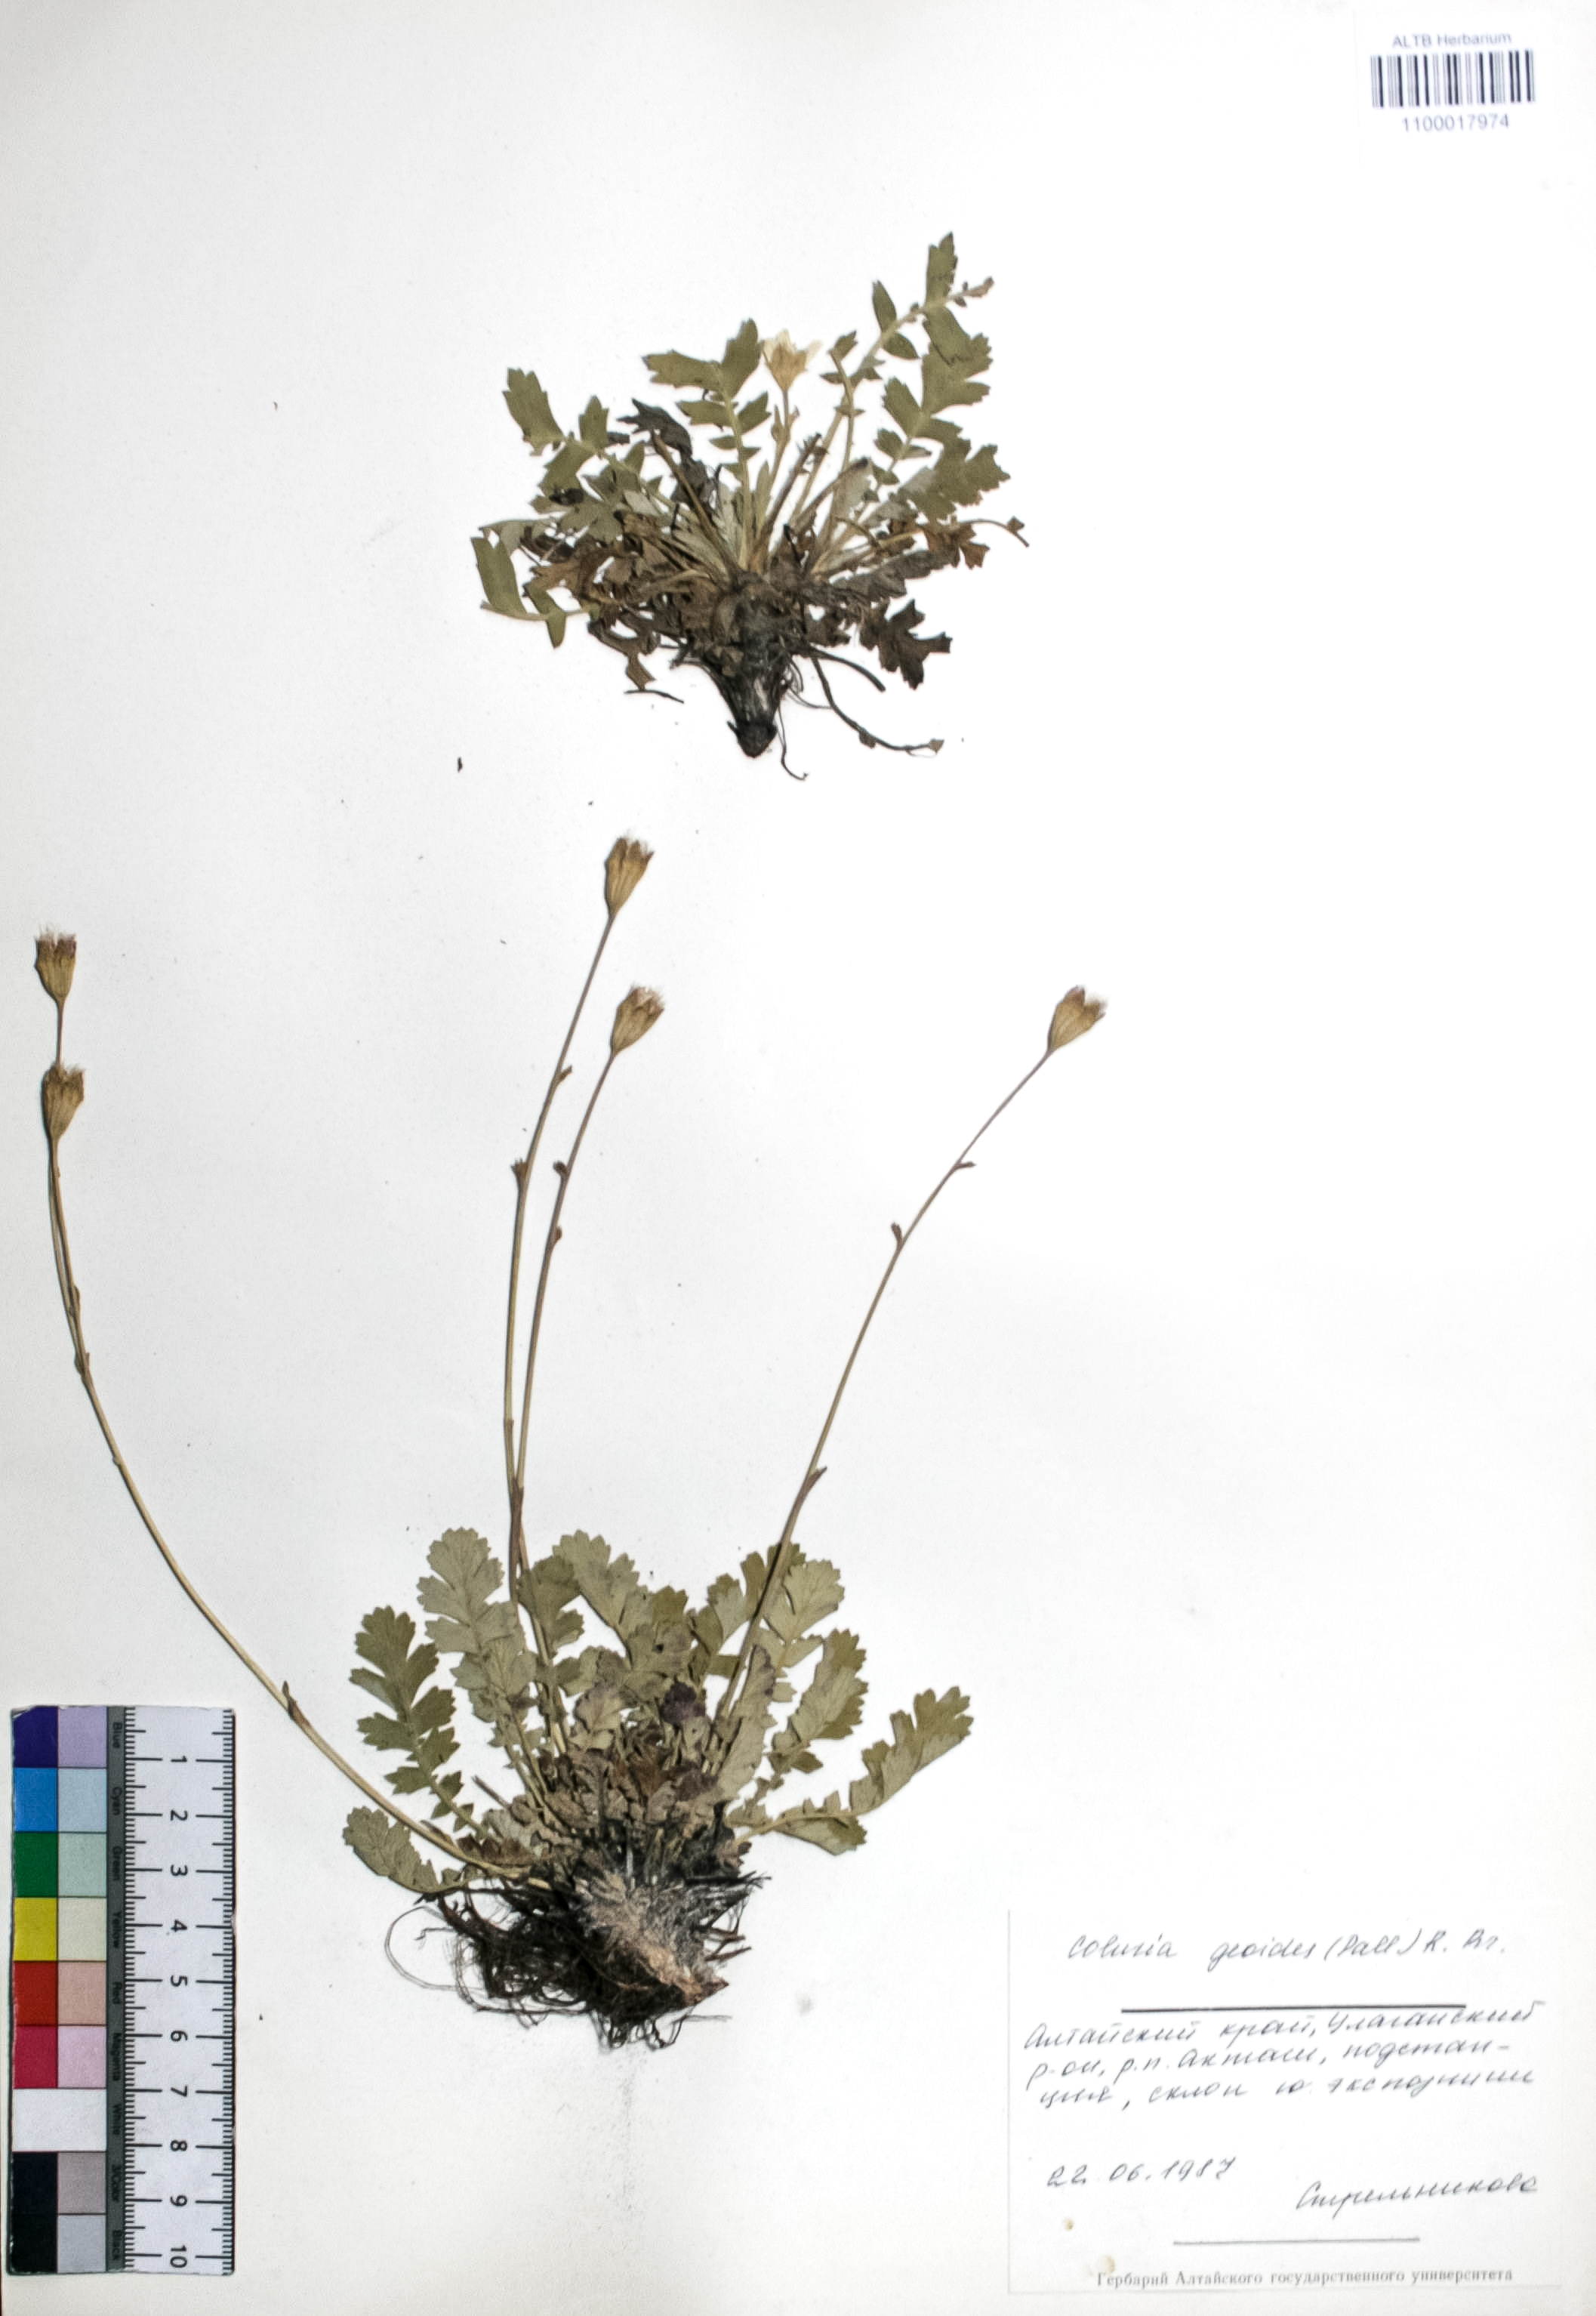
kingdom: Plantae
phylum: Tracheophyta
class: Magnoliopsida
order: Rosales
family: Rosaceae
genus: Geum
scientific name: Geum geoides
